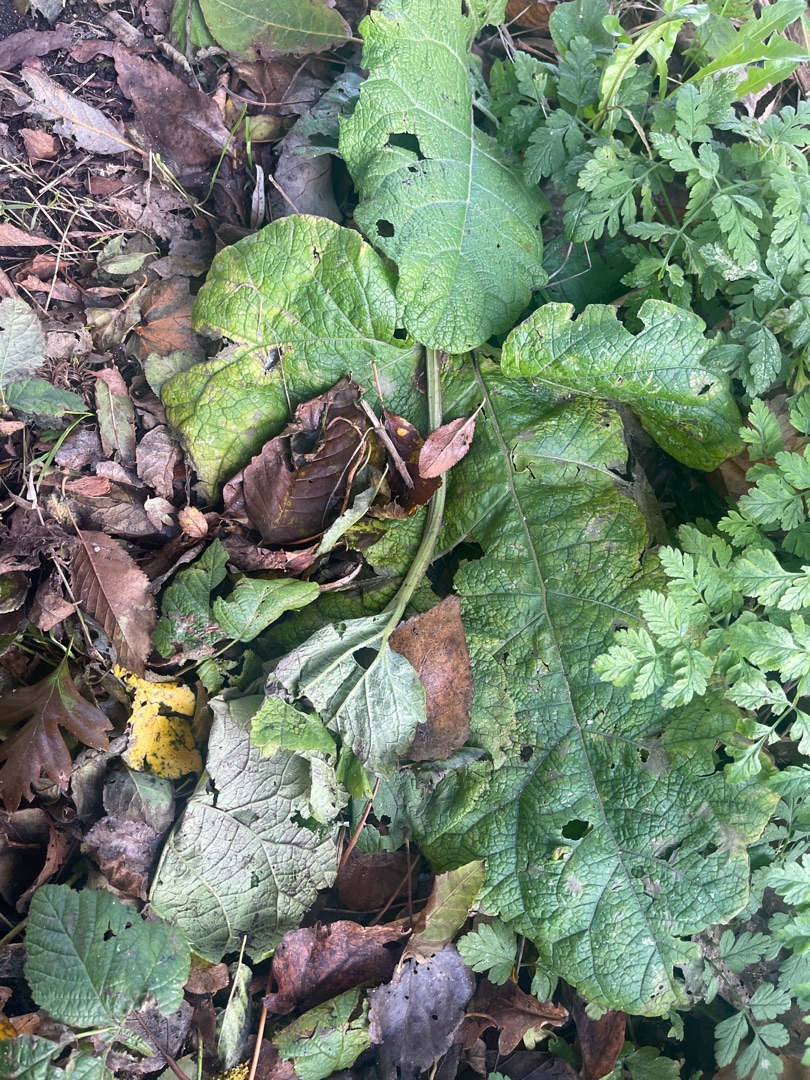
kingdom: Plantae
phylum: Tracheophyta
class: Magnoliopsida
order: Asterales
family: Asteraceae
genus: Arctium
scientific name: Arctium
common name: Burreslægten
